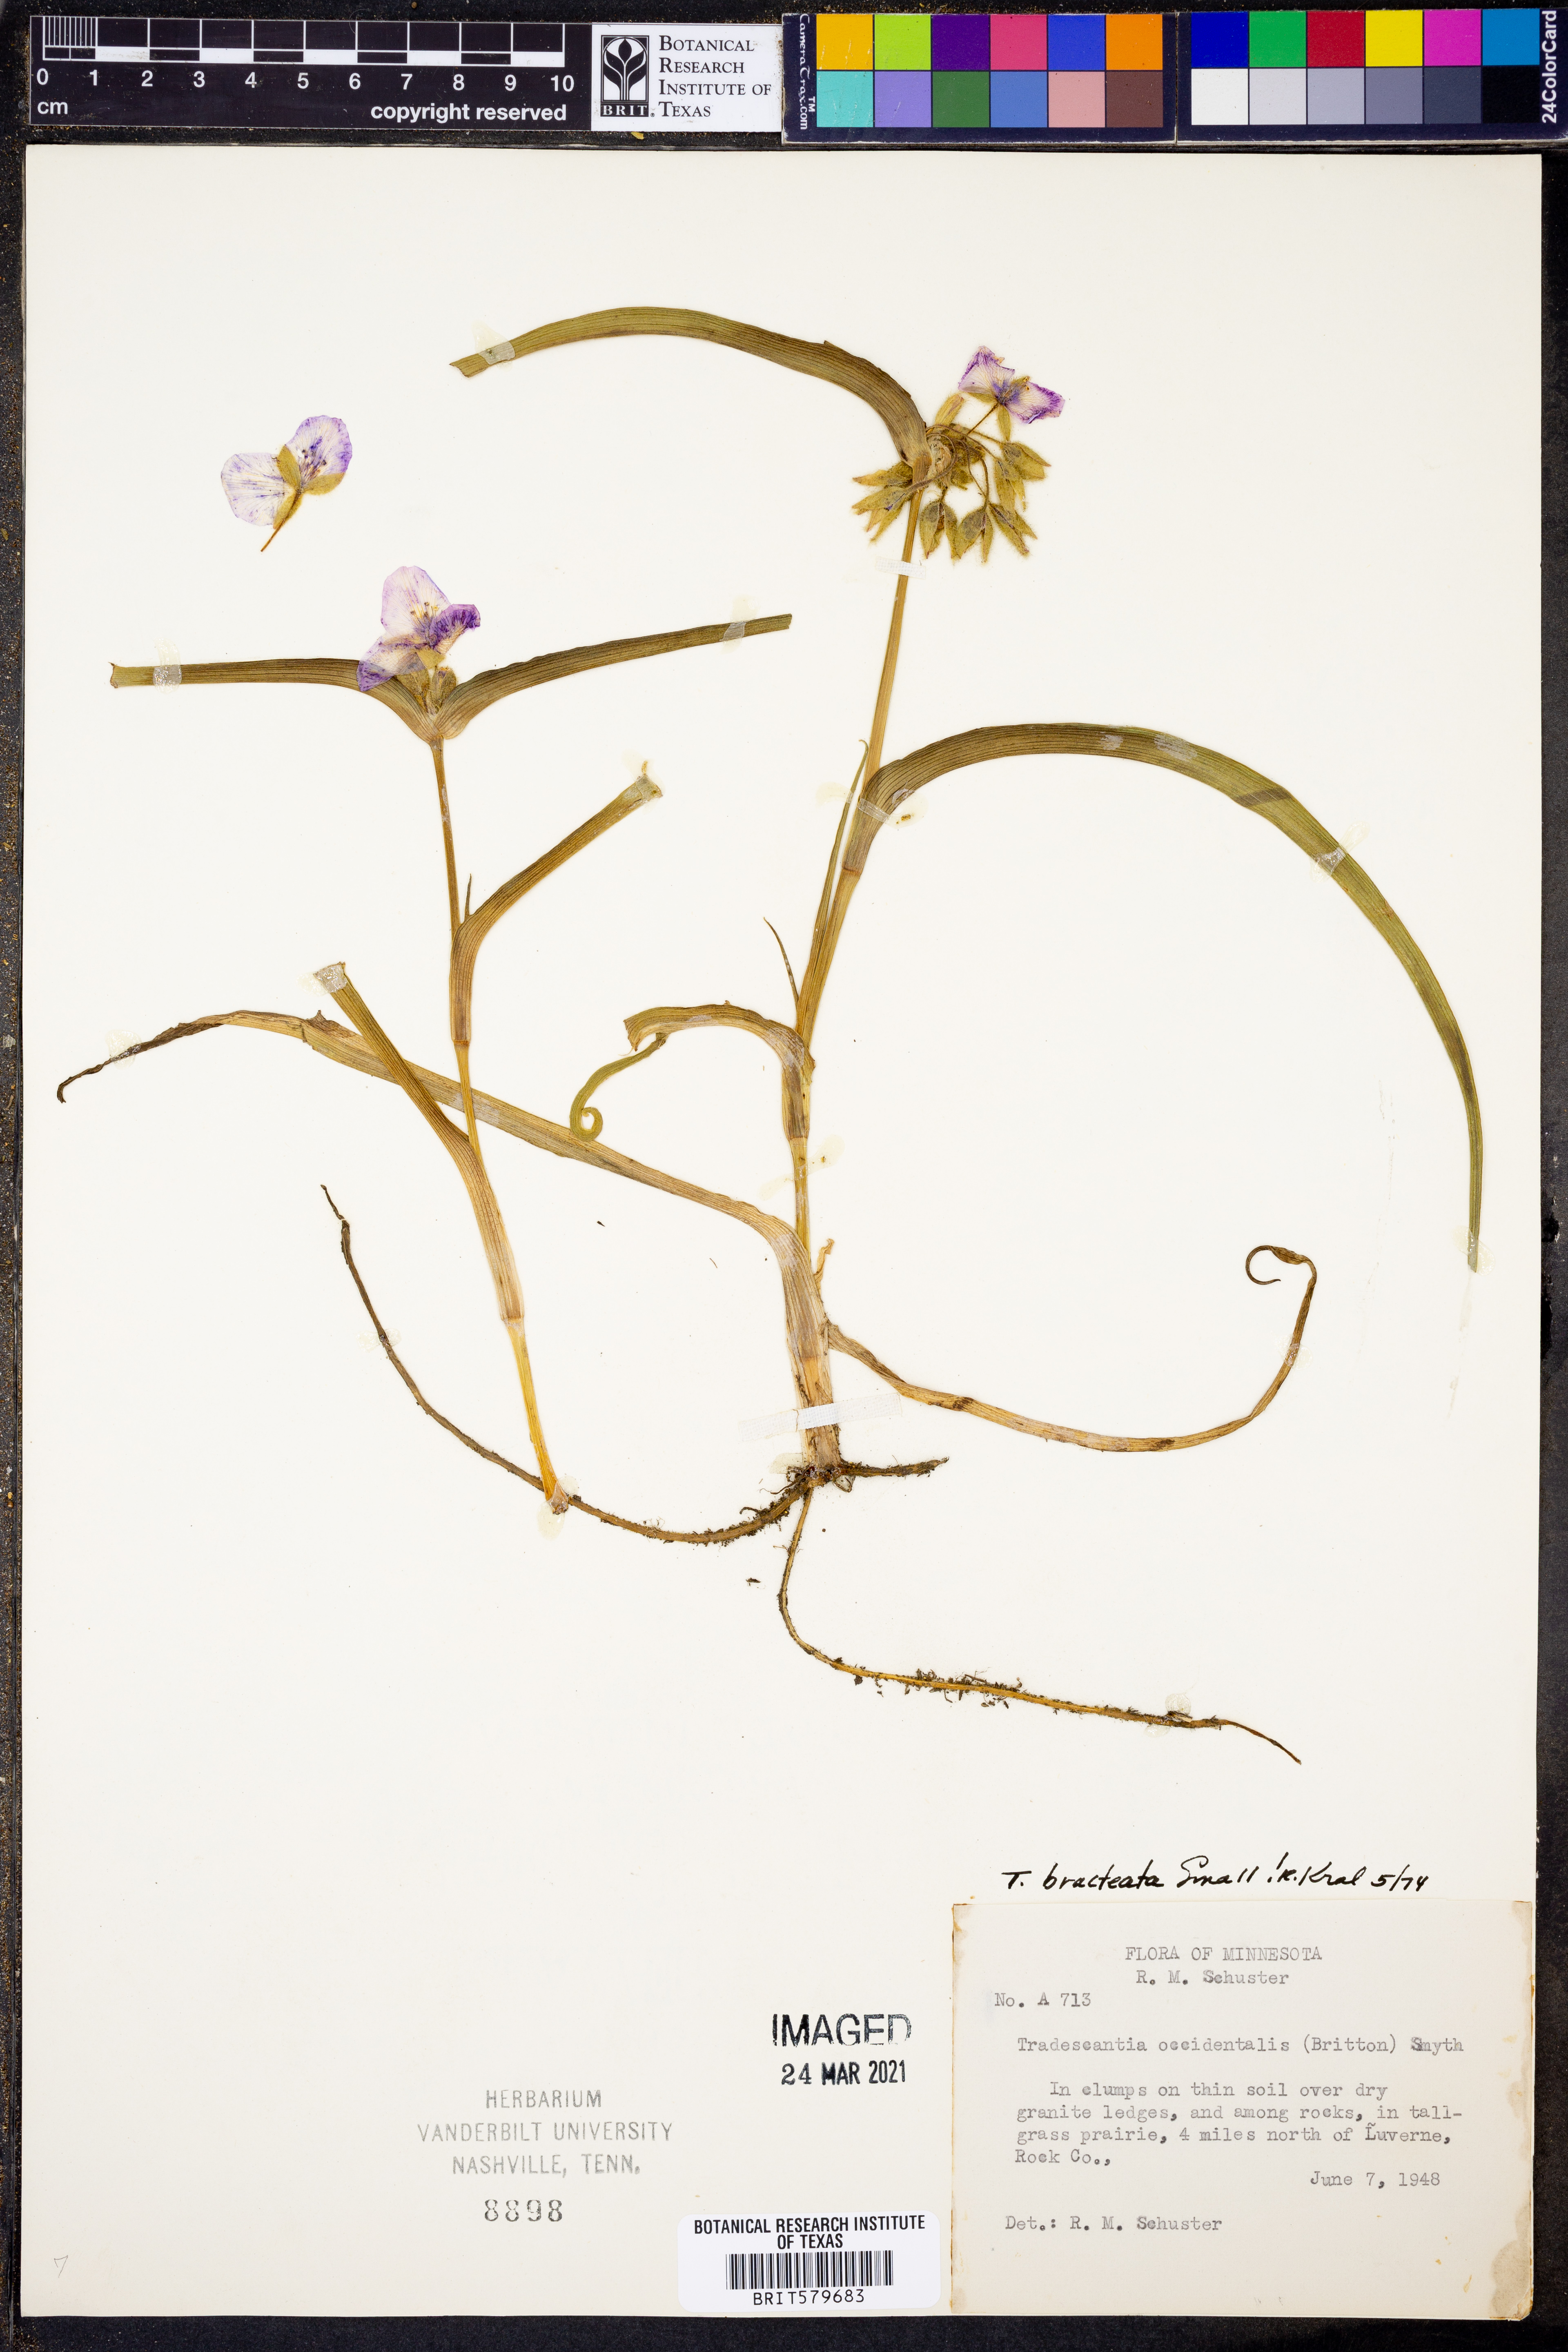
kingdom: Plantae
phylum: Tracheophyta
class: Liliopsida
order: Commelinales
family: Commelinaceae
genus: Tradescantia
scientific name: Tradescantia bracteata
